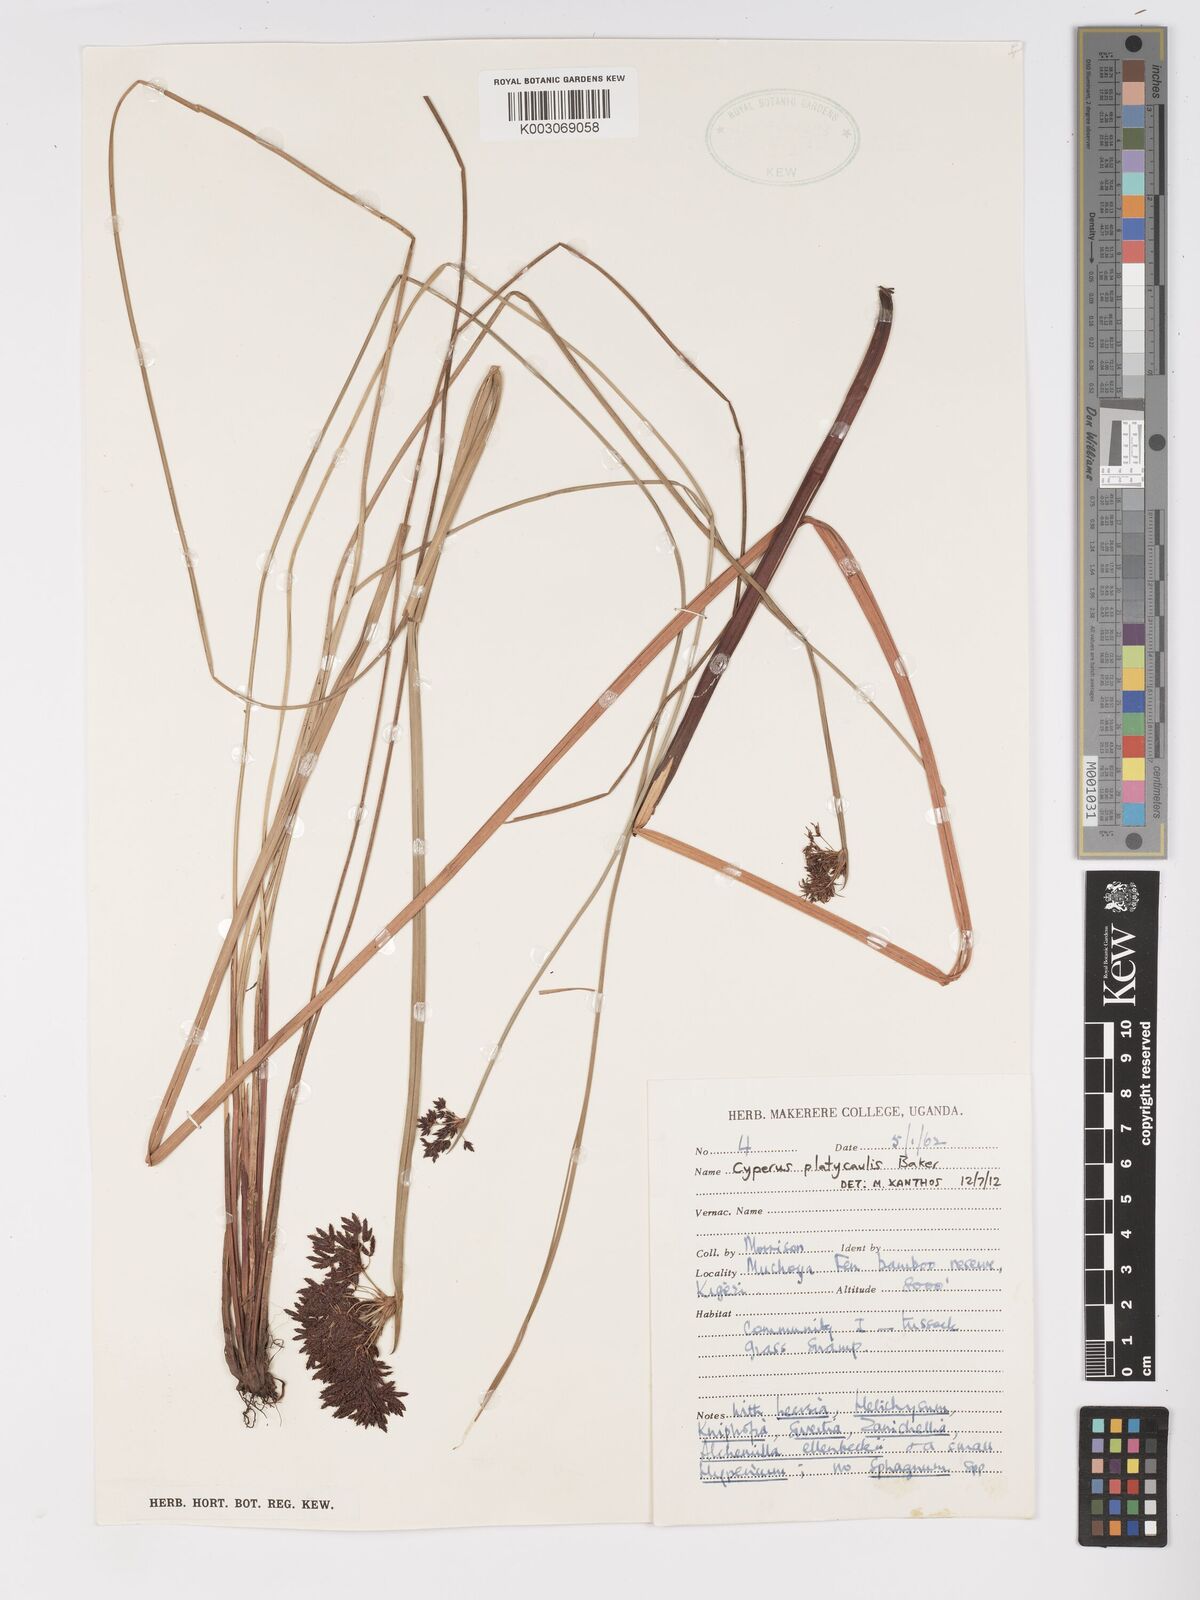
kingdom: Plantae
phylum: Tracheophyta
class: Liliopsida
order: Poales
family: Cyperaceae
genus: Cyperus
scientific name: Cyperus platycaulis
